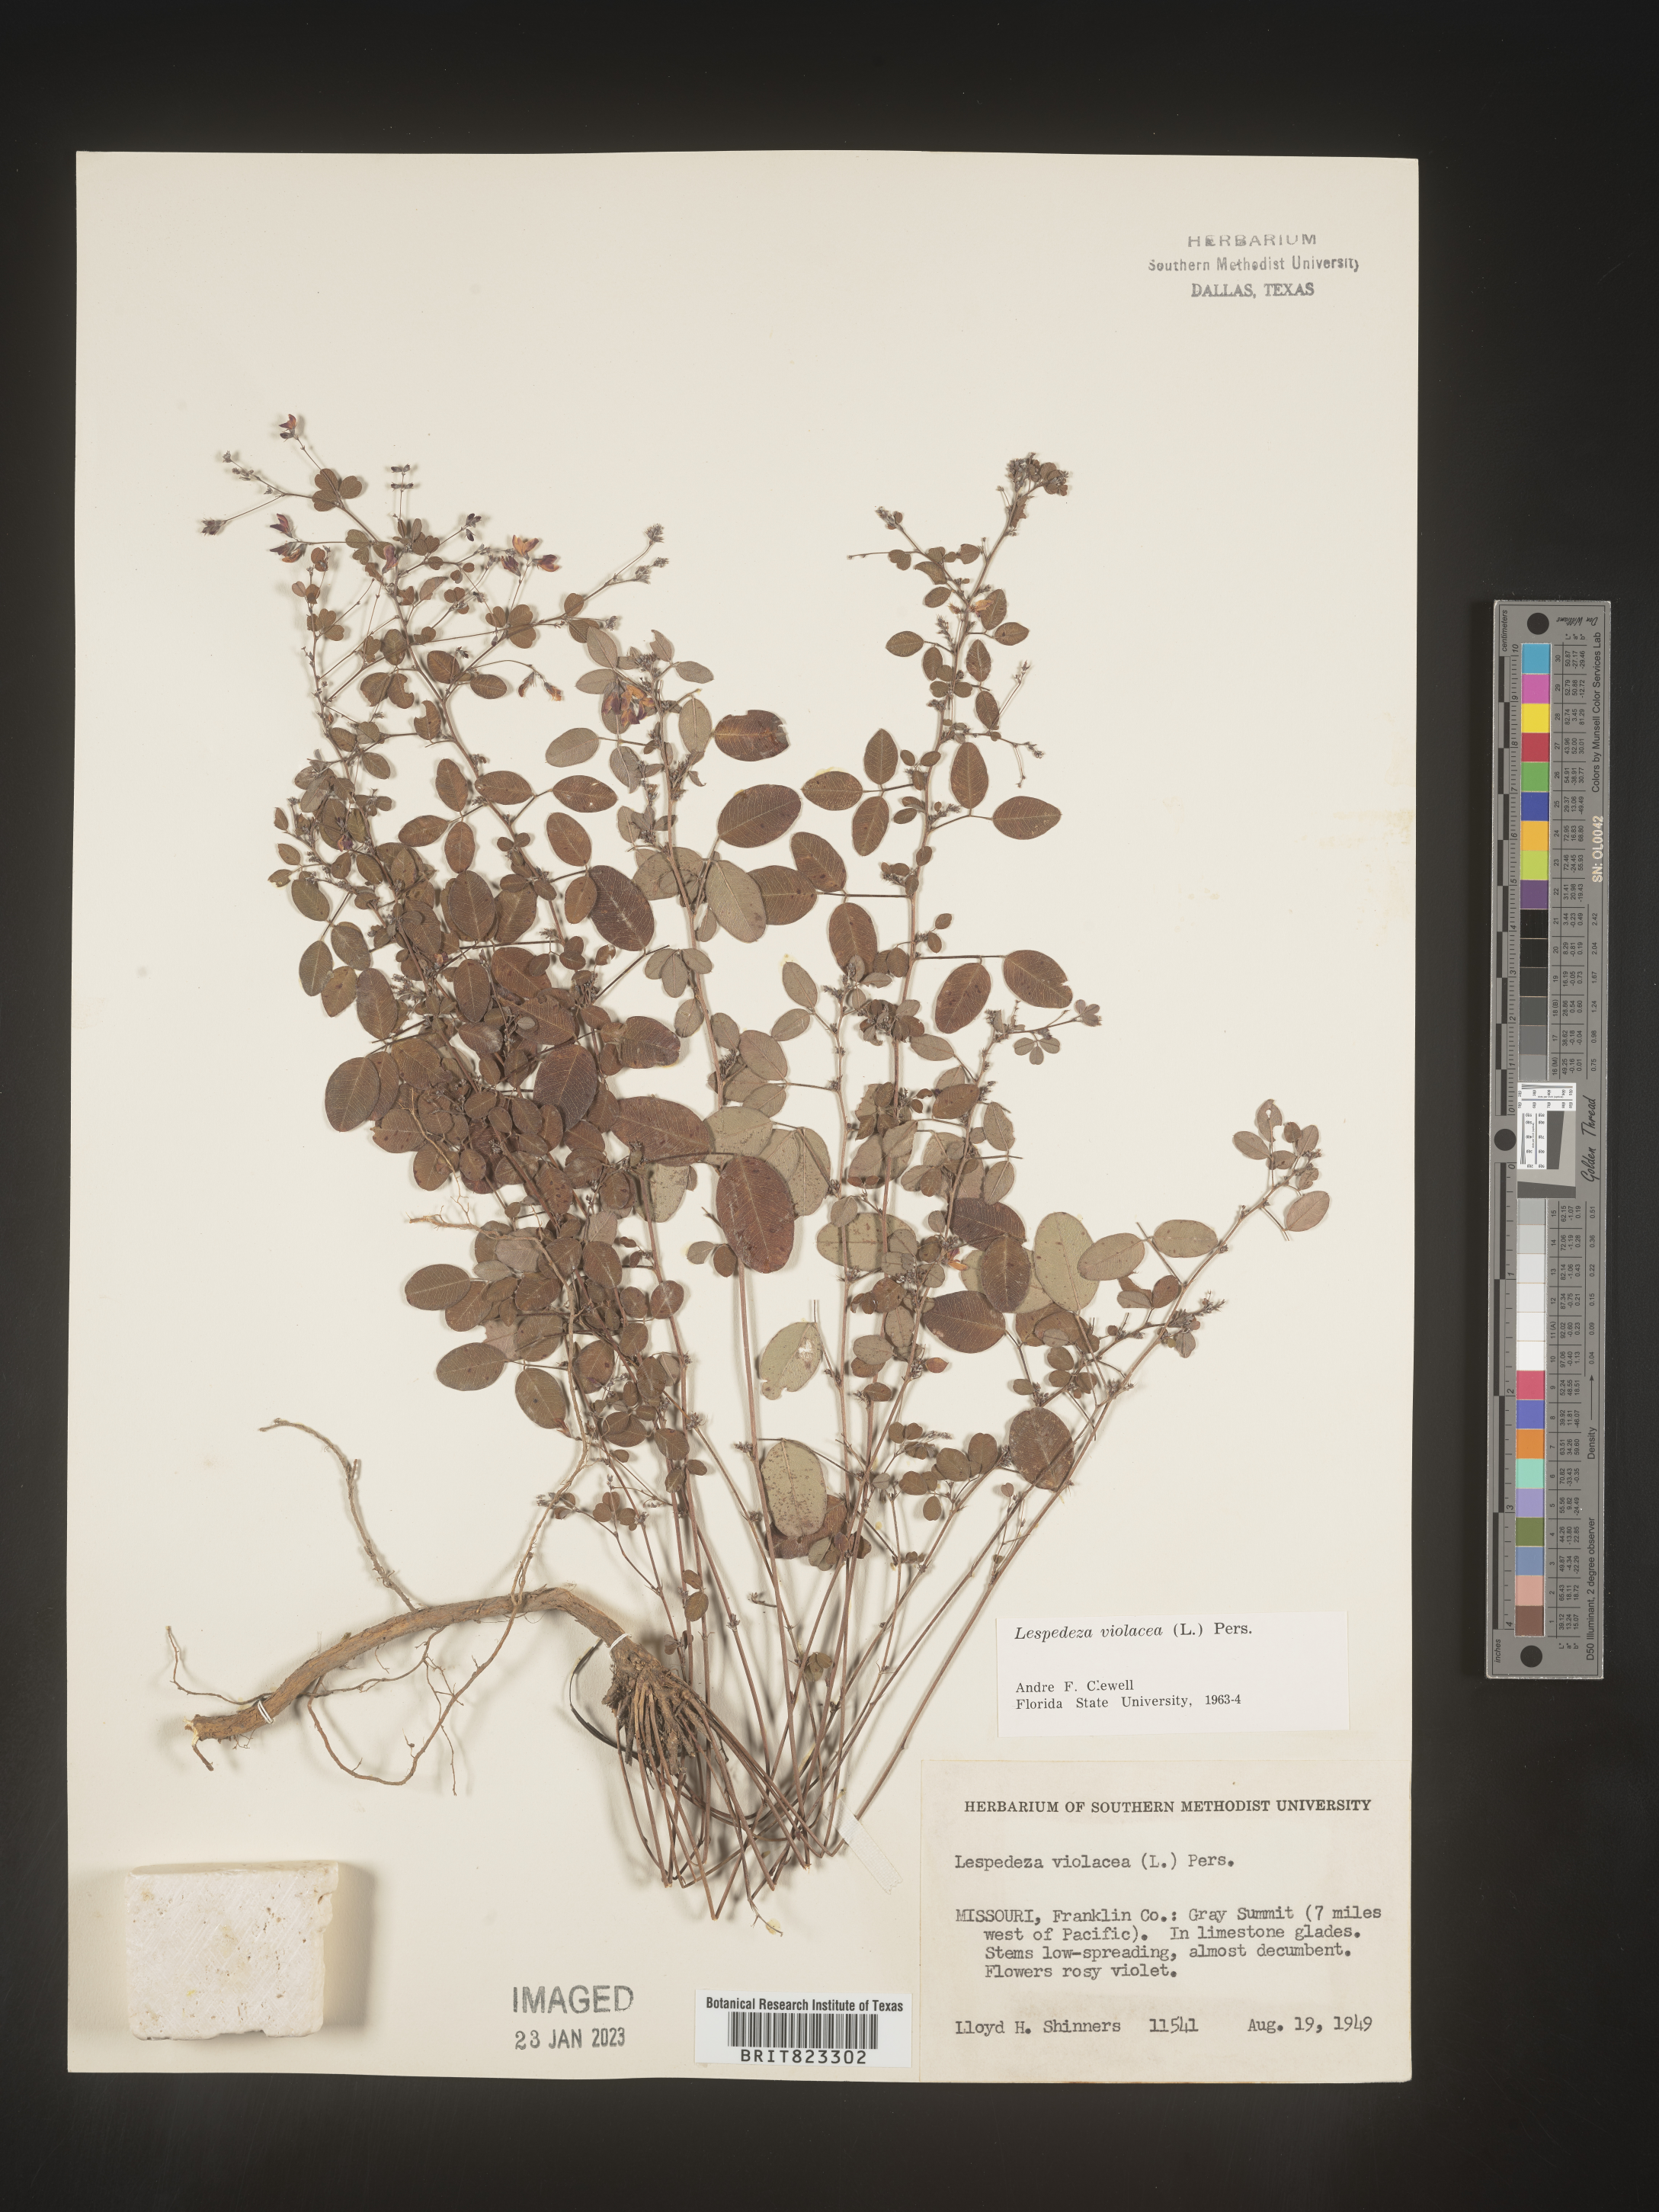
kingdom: Plantae
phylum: Tracheophyta
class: Magnoliopsida
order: Fabales
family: Fabaceae
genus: Lespedeza
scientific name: Lespedeza violacea
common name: Wand bush-clover
